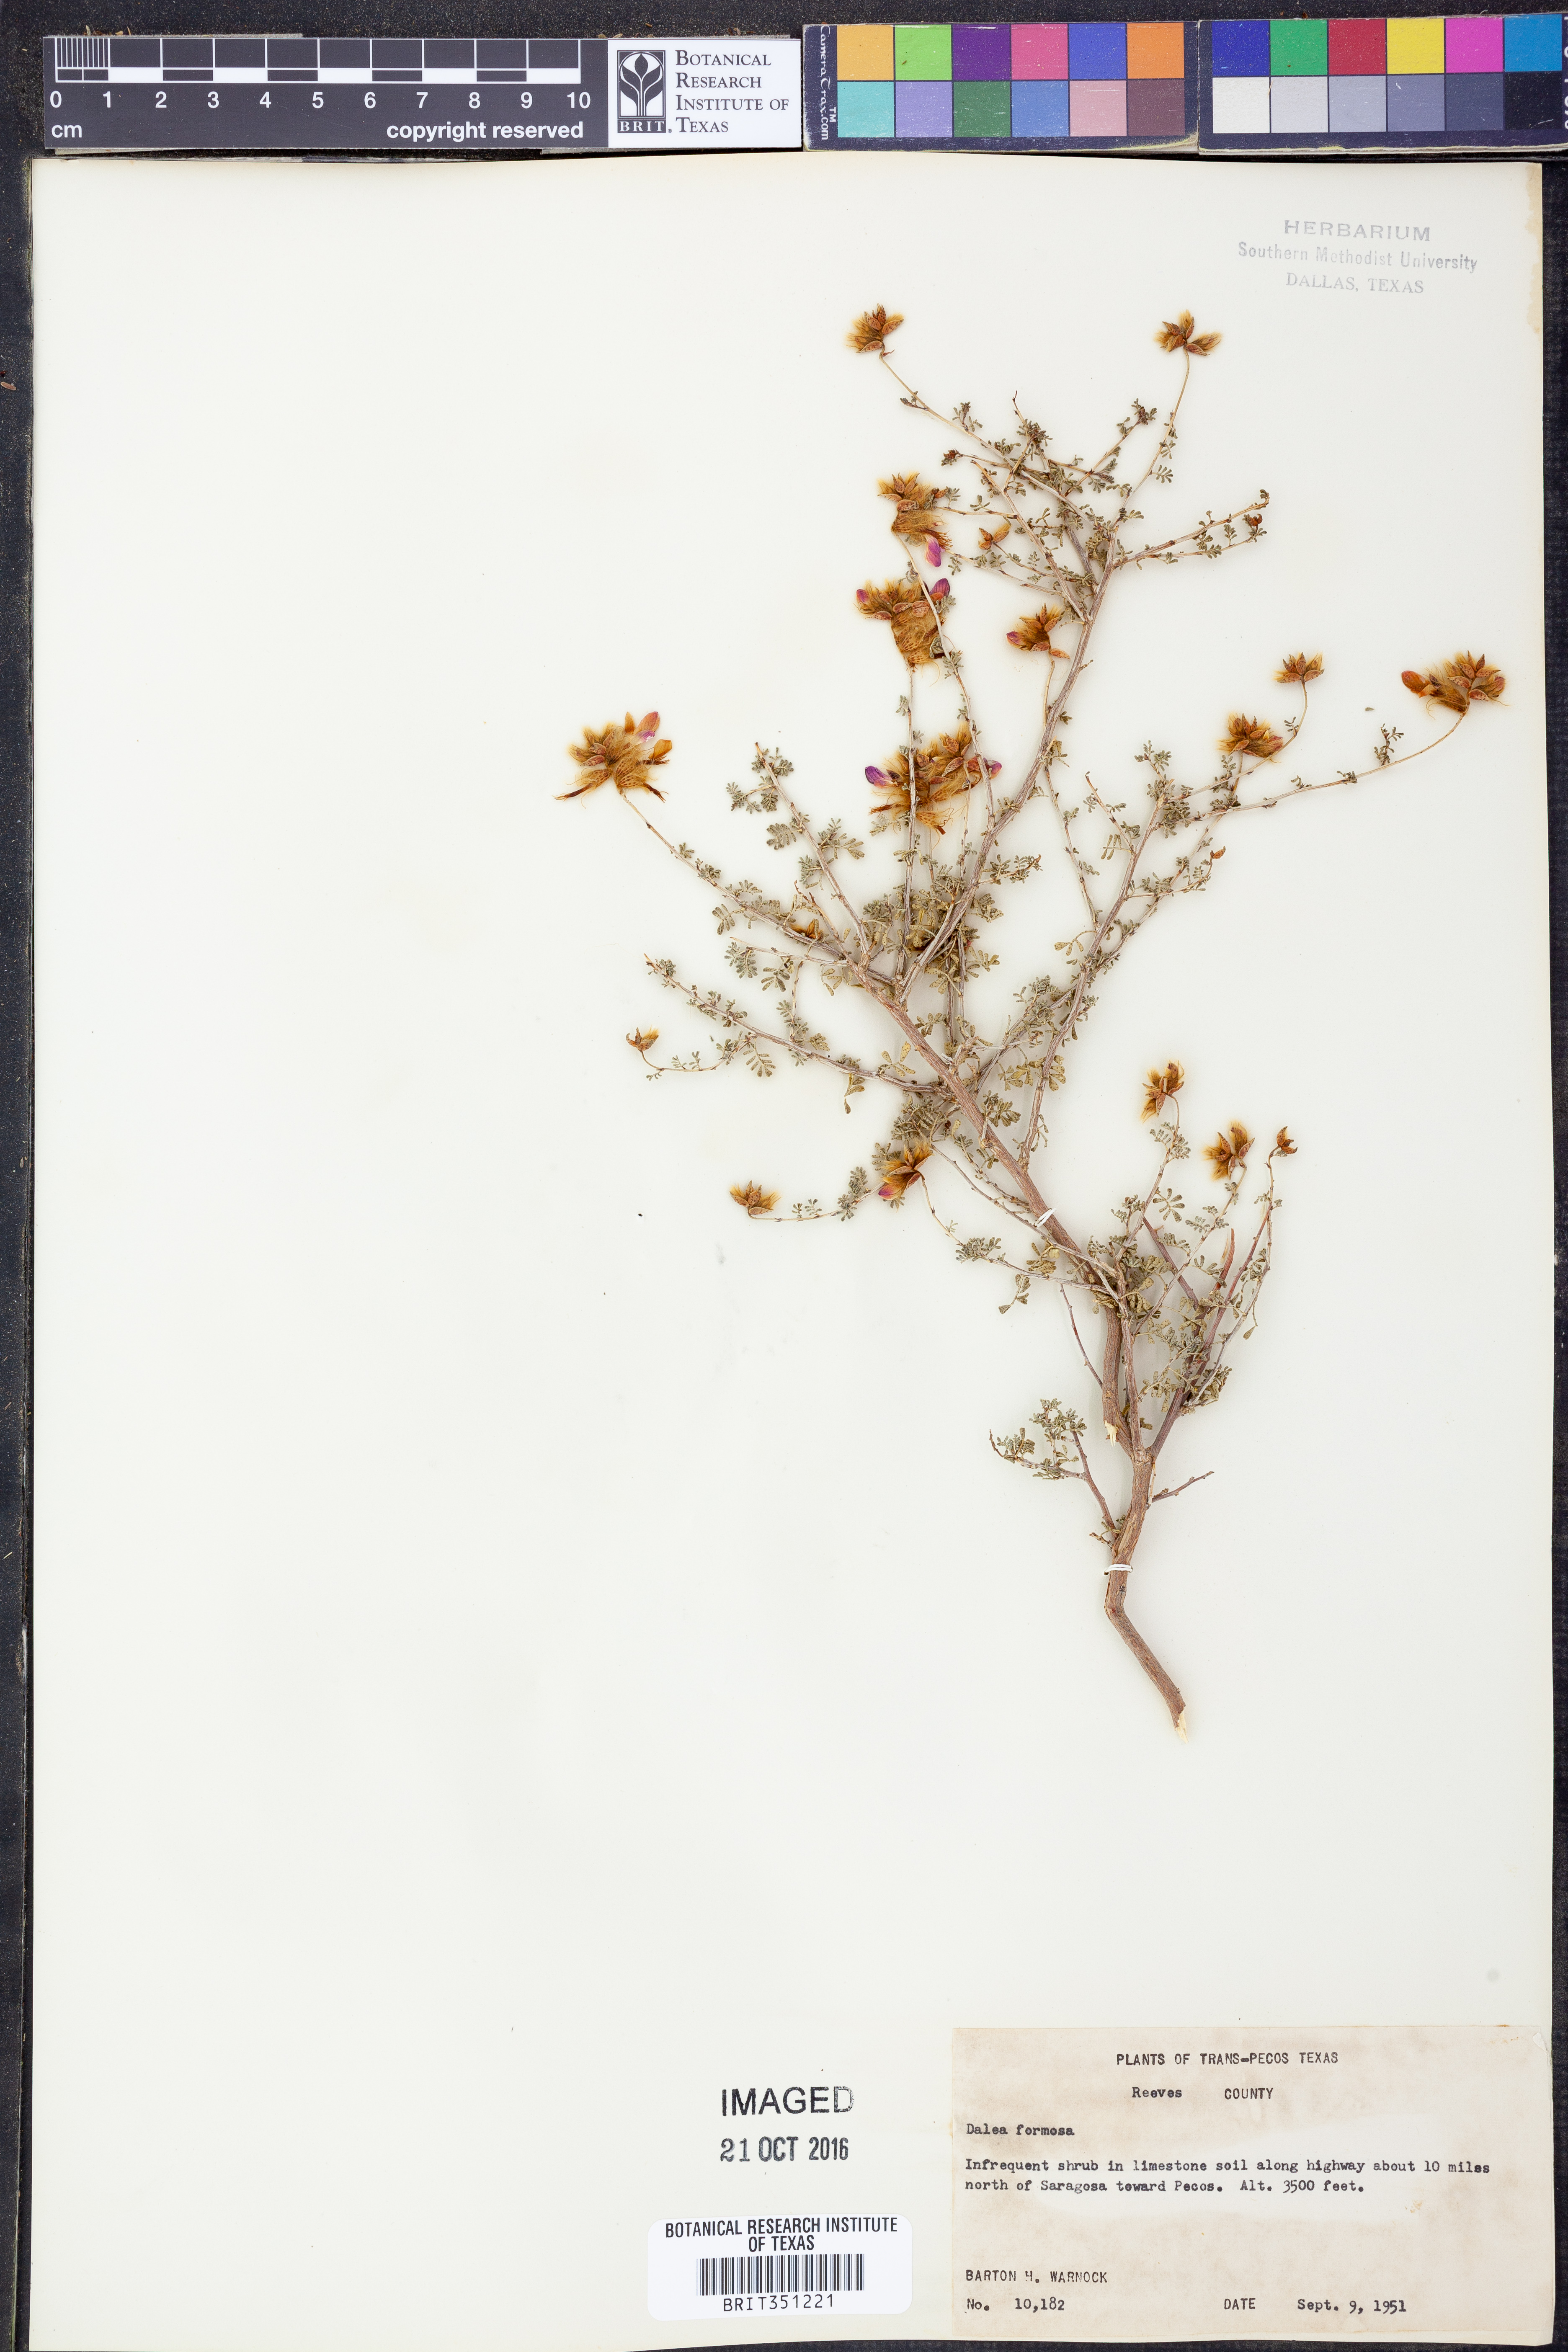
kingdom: Plantae
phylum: Tracheophyta
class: Magnoliopsida
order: Fabales
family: Fabaceae
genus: Dalea
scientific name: Dalea formosa
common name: Feather-plume dalea
